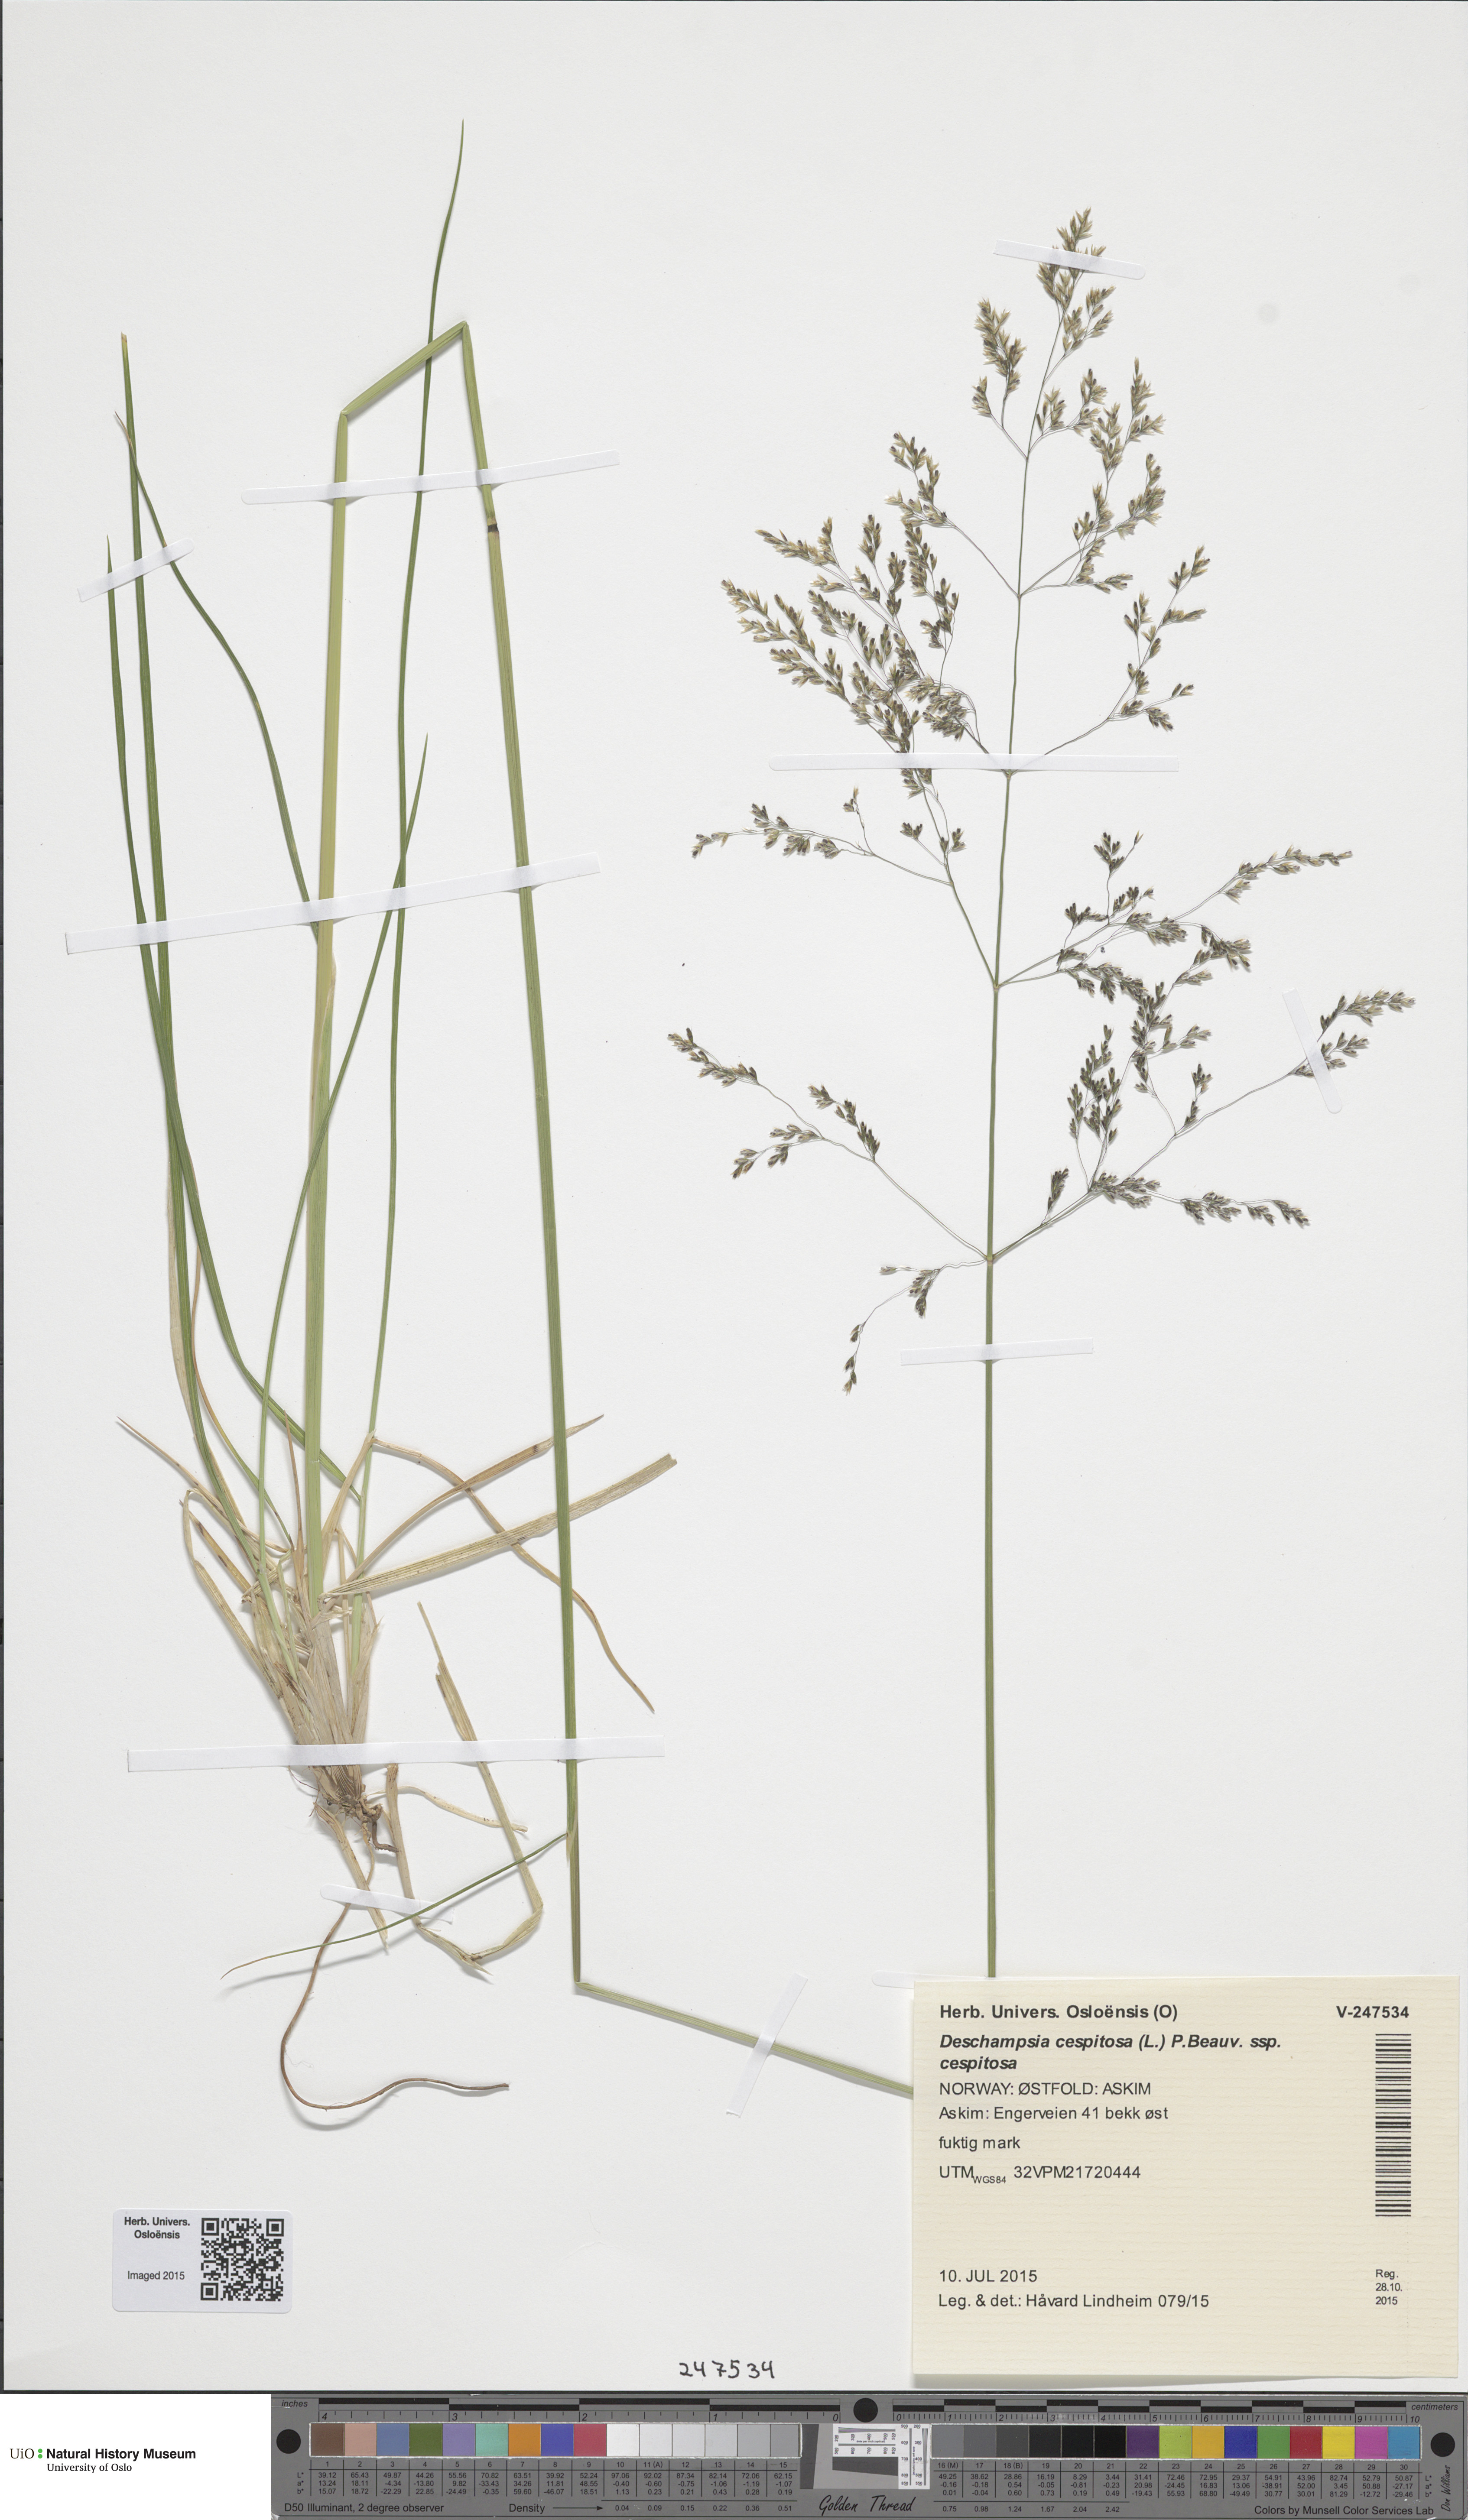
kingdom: Plantae
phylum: Tracheophyta
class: Liliopsida
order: Poales
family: Poaceae
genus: Deschampsia
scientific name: Deschampsia cespitosa
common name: Tufted hair-grass
